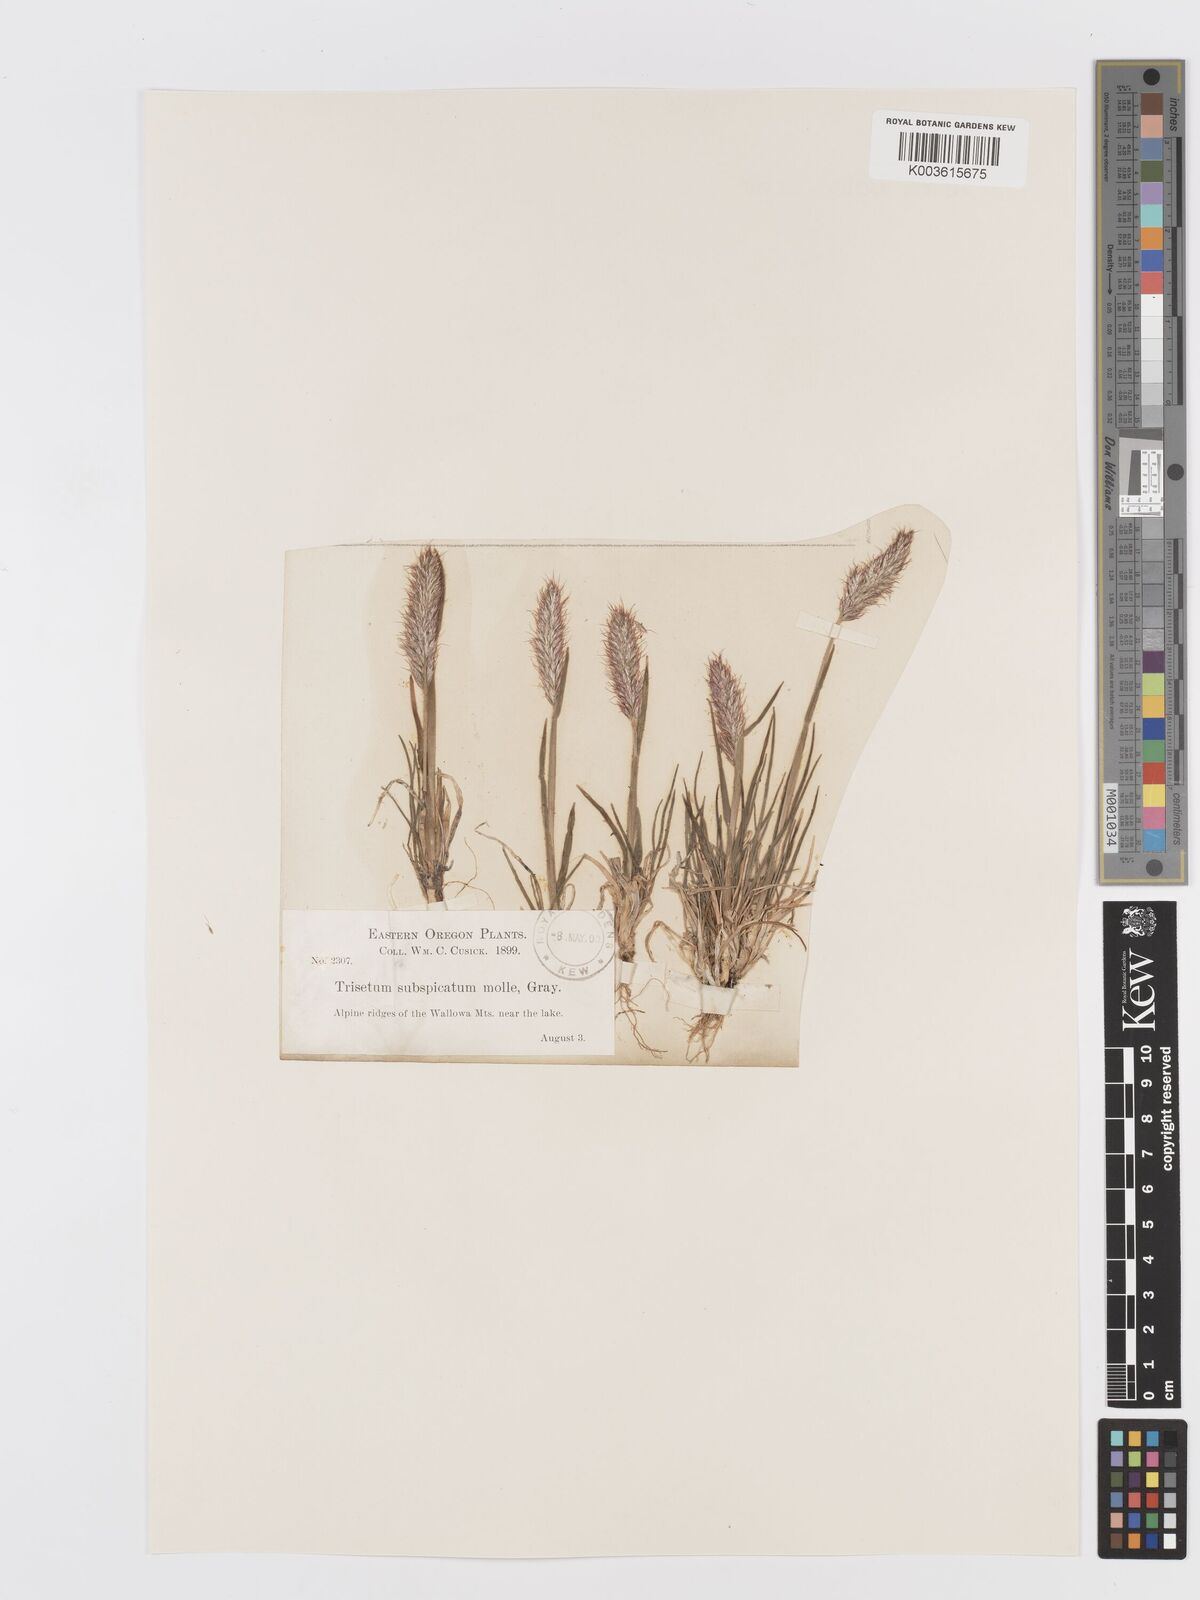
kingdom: Plantae
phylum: Tracheophyta
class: Liliopsida
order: Poales
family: Poaceae
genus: Koeleria
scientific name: Koeleria spicata
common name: Mountain trisetum
